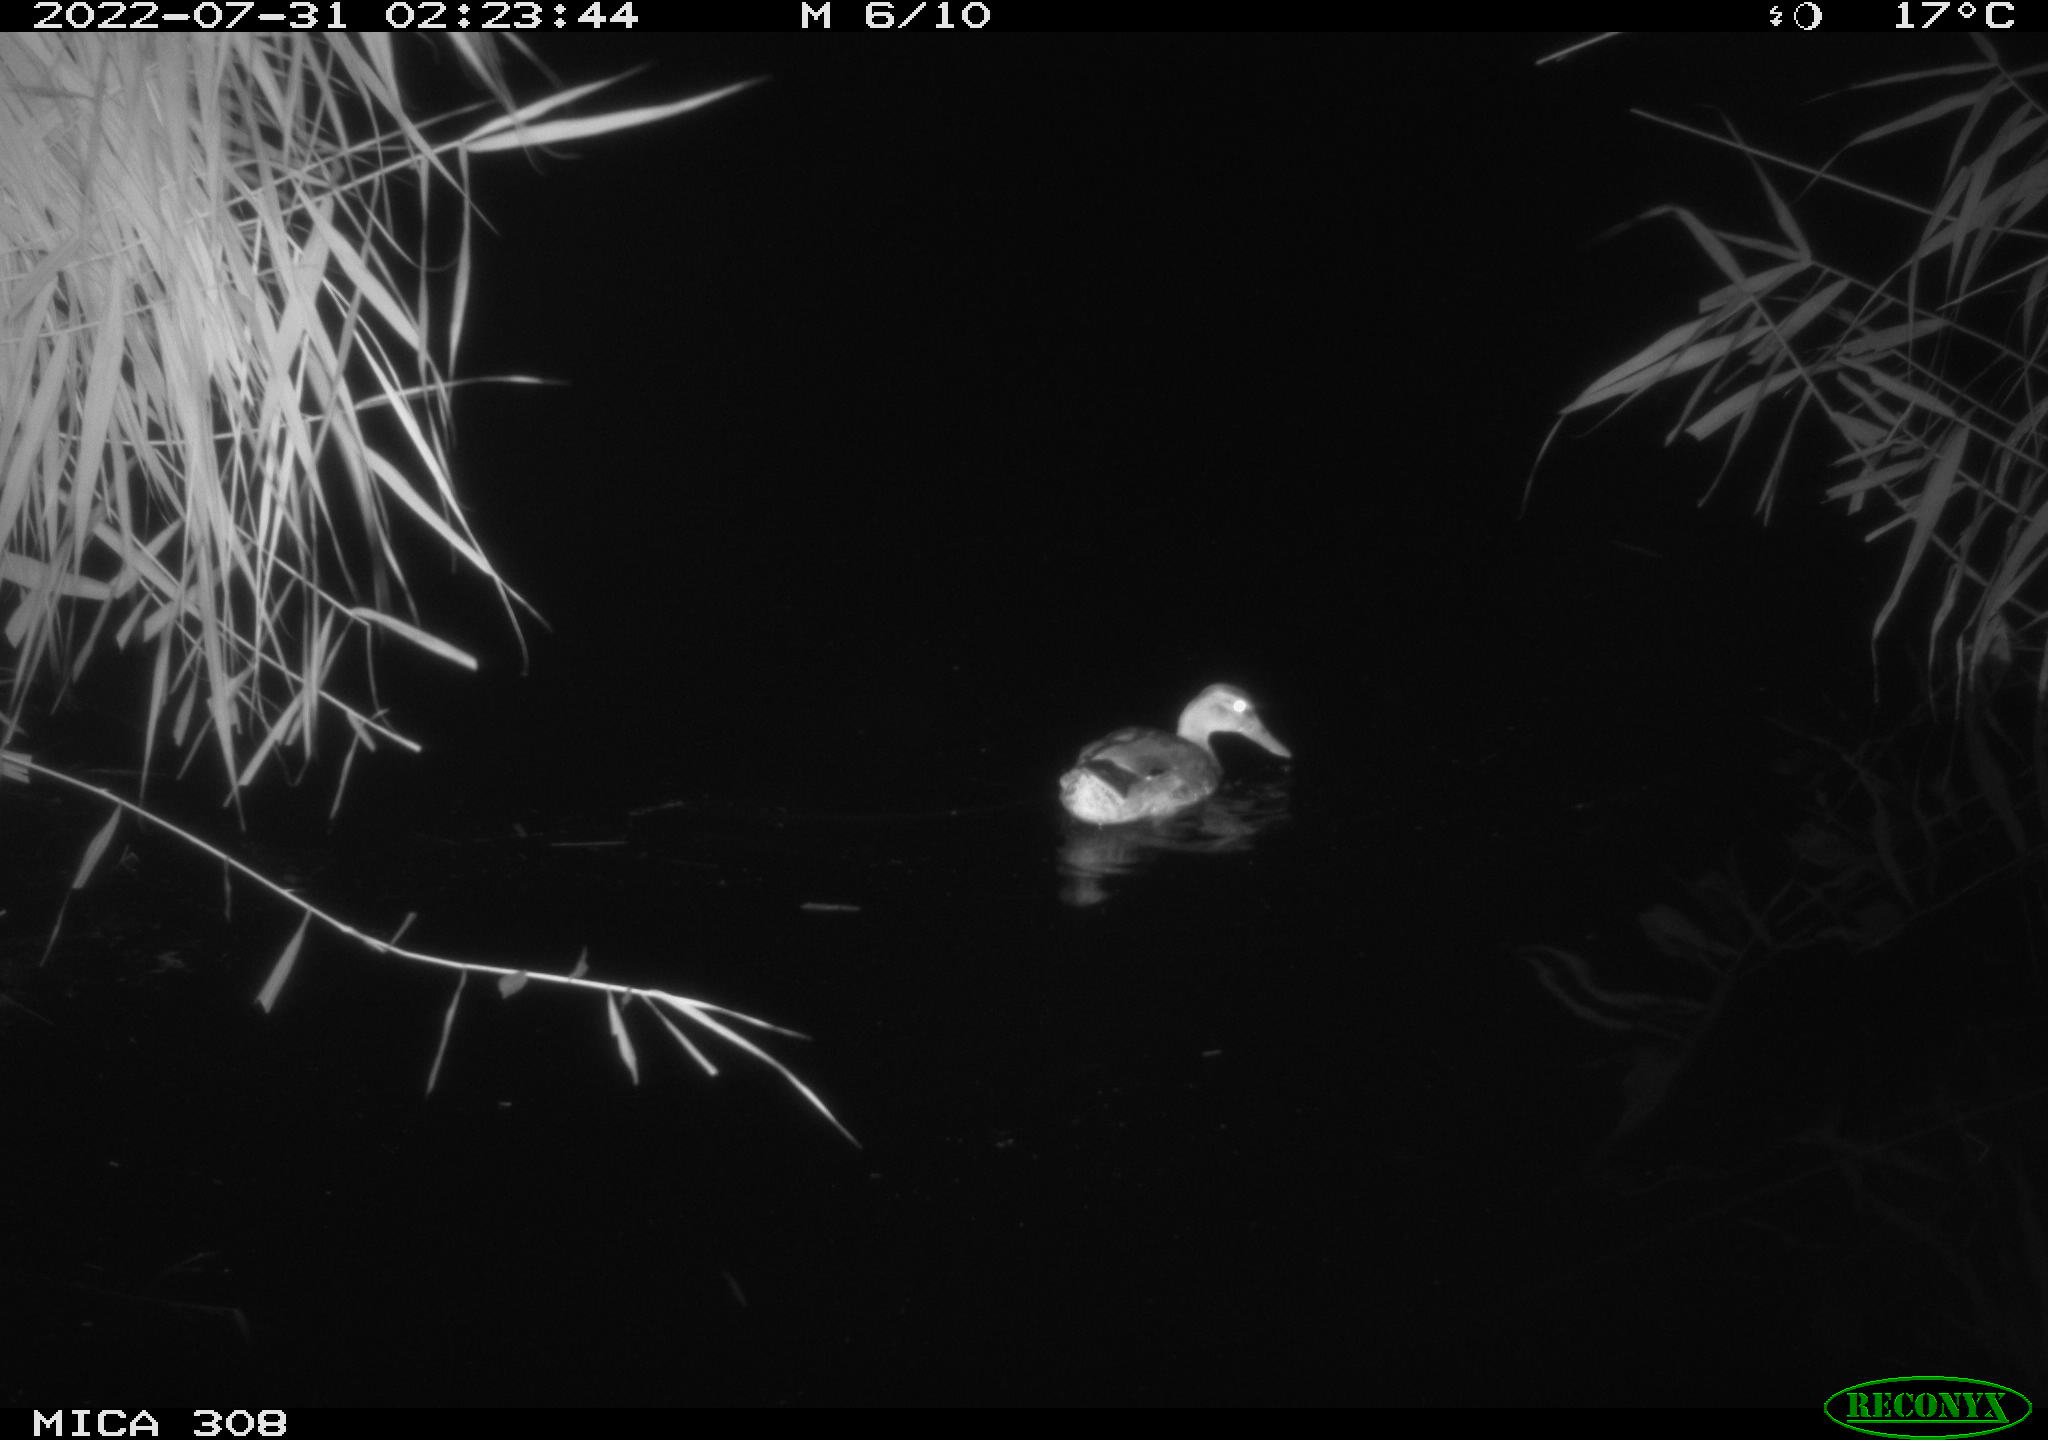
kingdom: Animalia
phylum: Chordata
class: Aves
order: Anseriformes
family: Anatidae
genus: Anas
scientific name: Anas platyrhynchos
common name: Mallard
